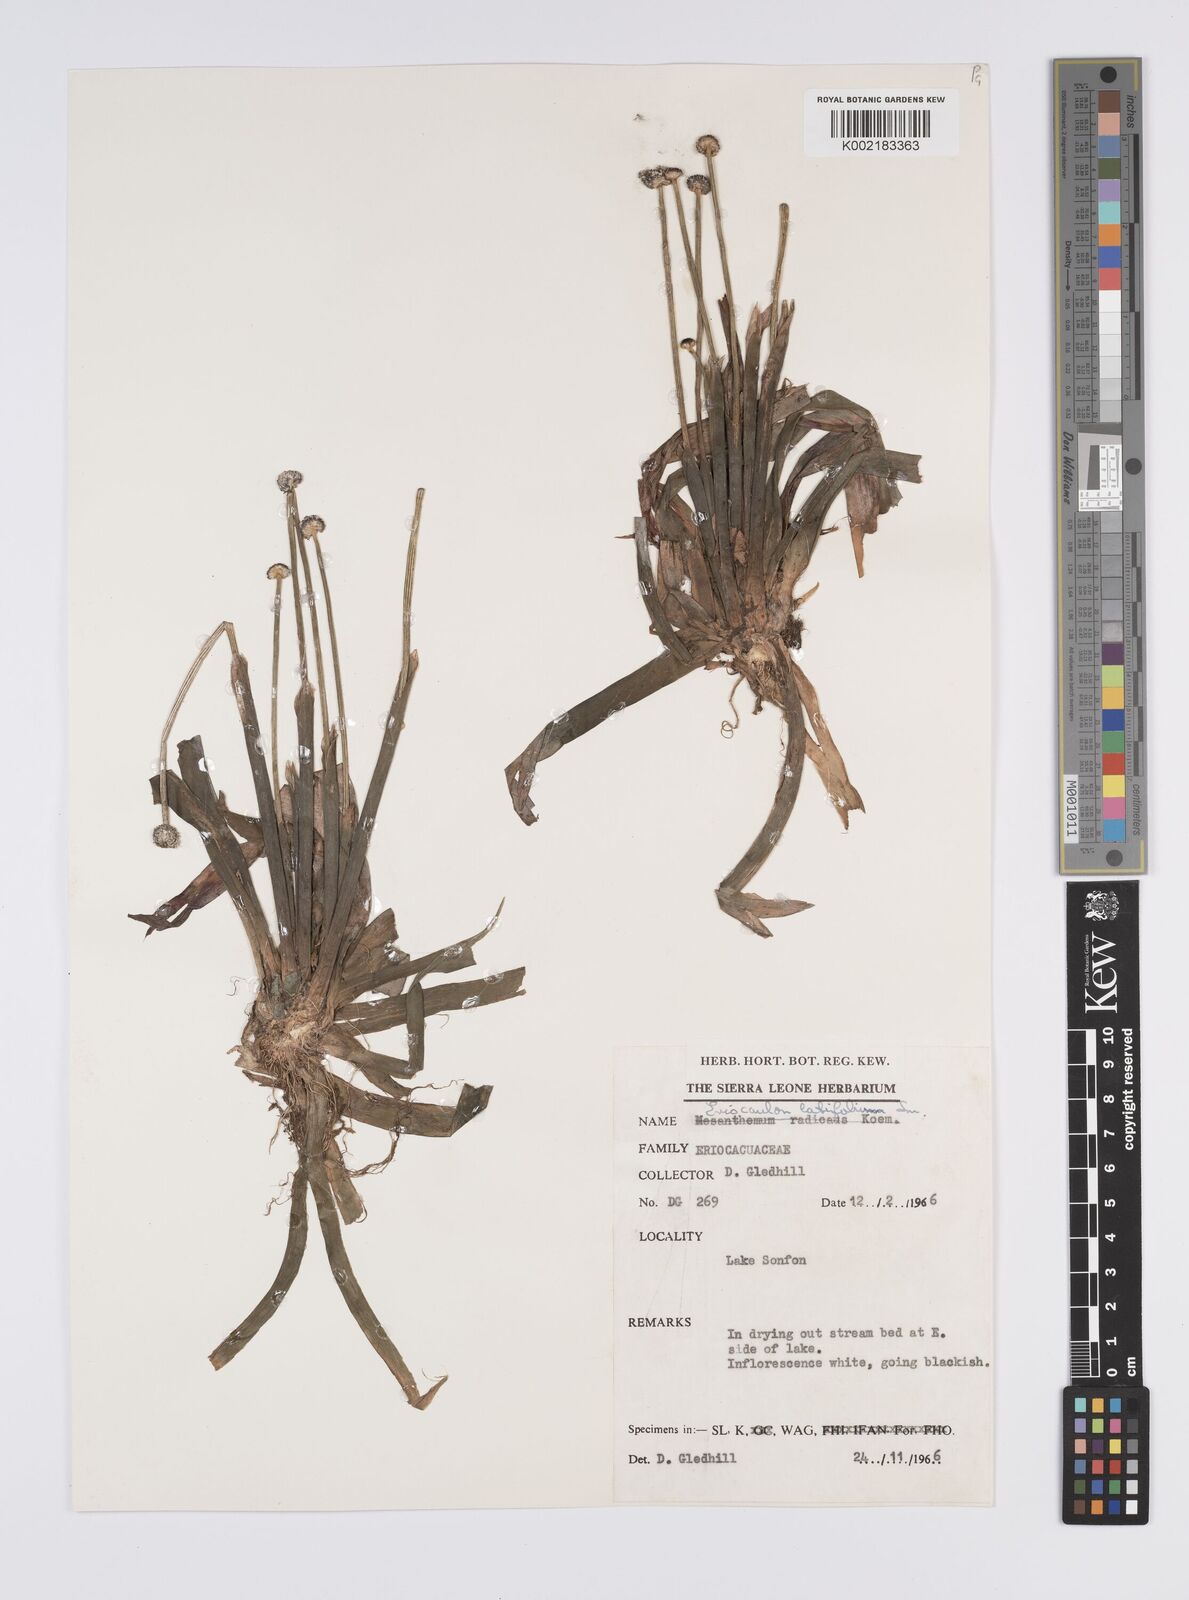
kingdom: Plantae
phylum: Tracheophyta
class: Liliopsida
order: Poales
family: Eriocaulaceae
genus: Eriocaulon
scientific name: Eriocaulon latifolium
